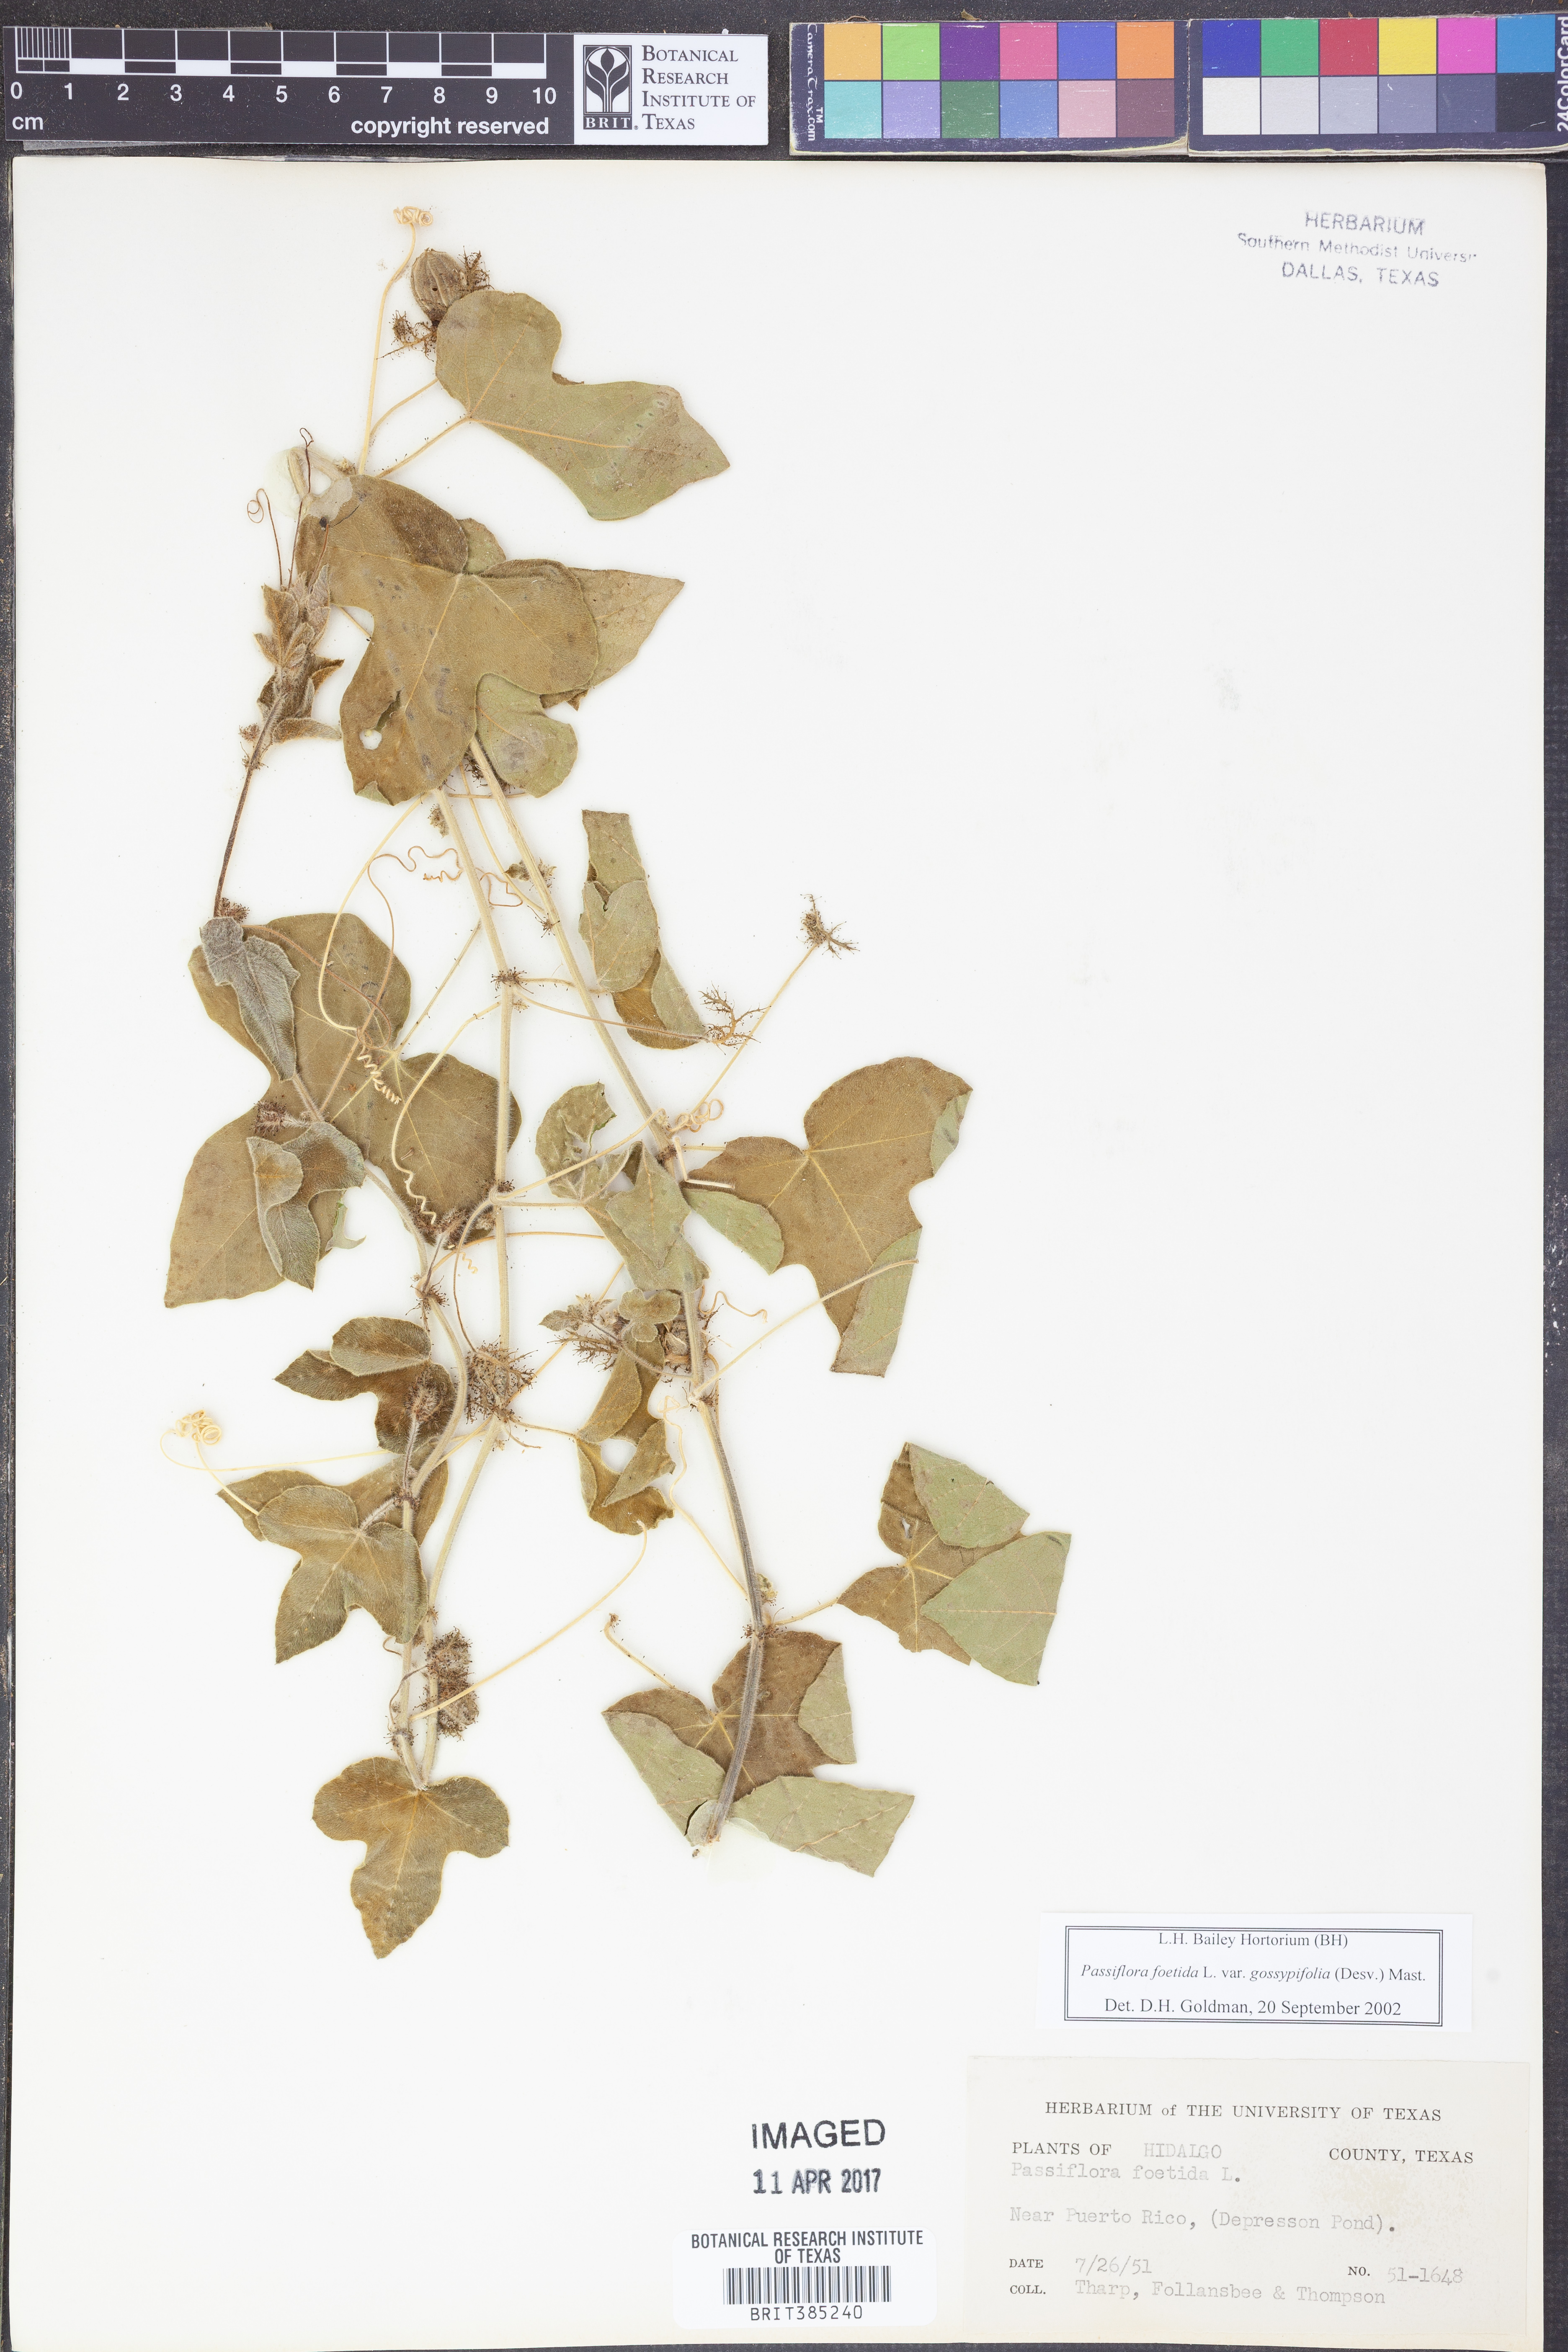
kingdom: Plantae
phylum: Tracheophyta
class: Magnoliopsida
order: Malpighiales
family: Passifloraceae
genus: Passiflora
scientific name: Passiflora foetida
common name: Fetid passionflower
